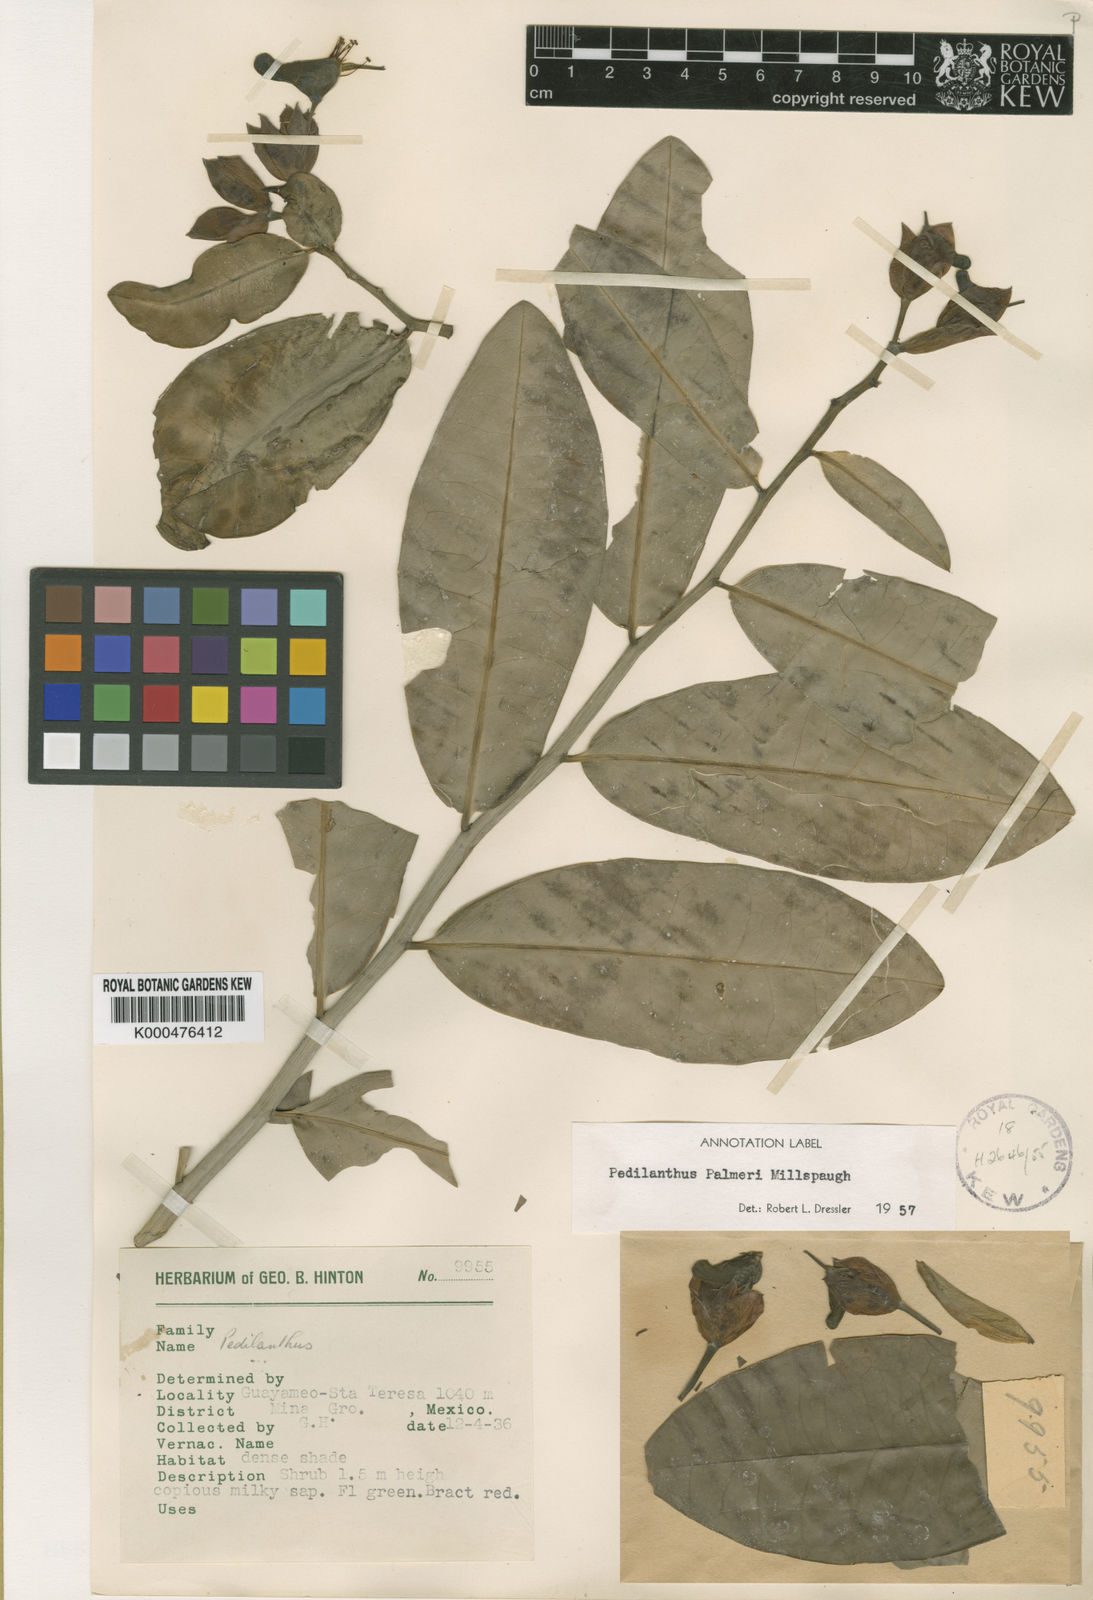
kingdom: Plantae
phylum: Tracheophyta
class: Magnoliopsida
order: Malpighiales
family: Euphorbiaceae
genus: Euphorbia
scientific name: Euphorbia peritropoides
